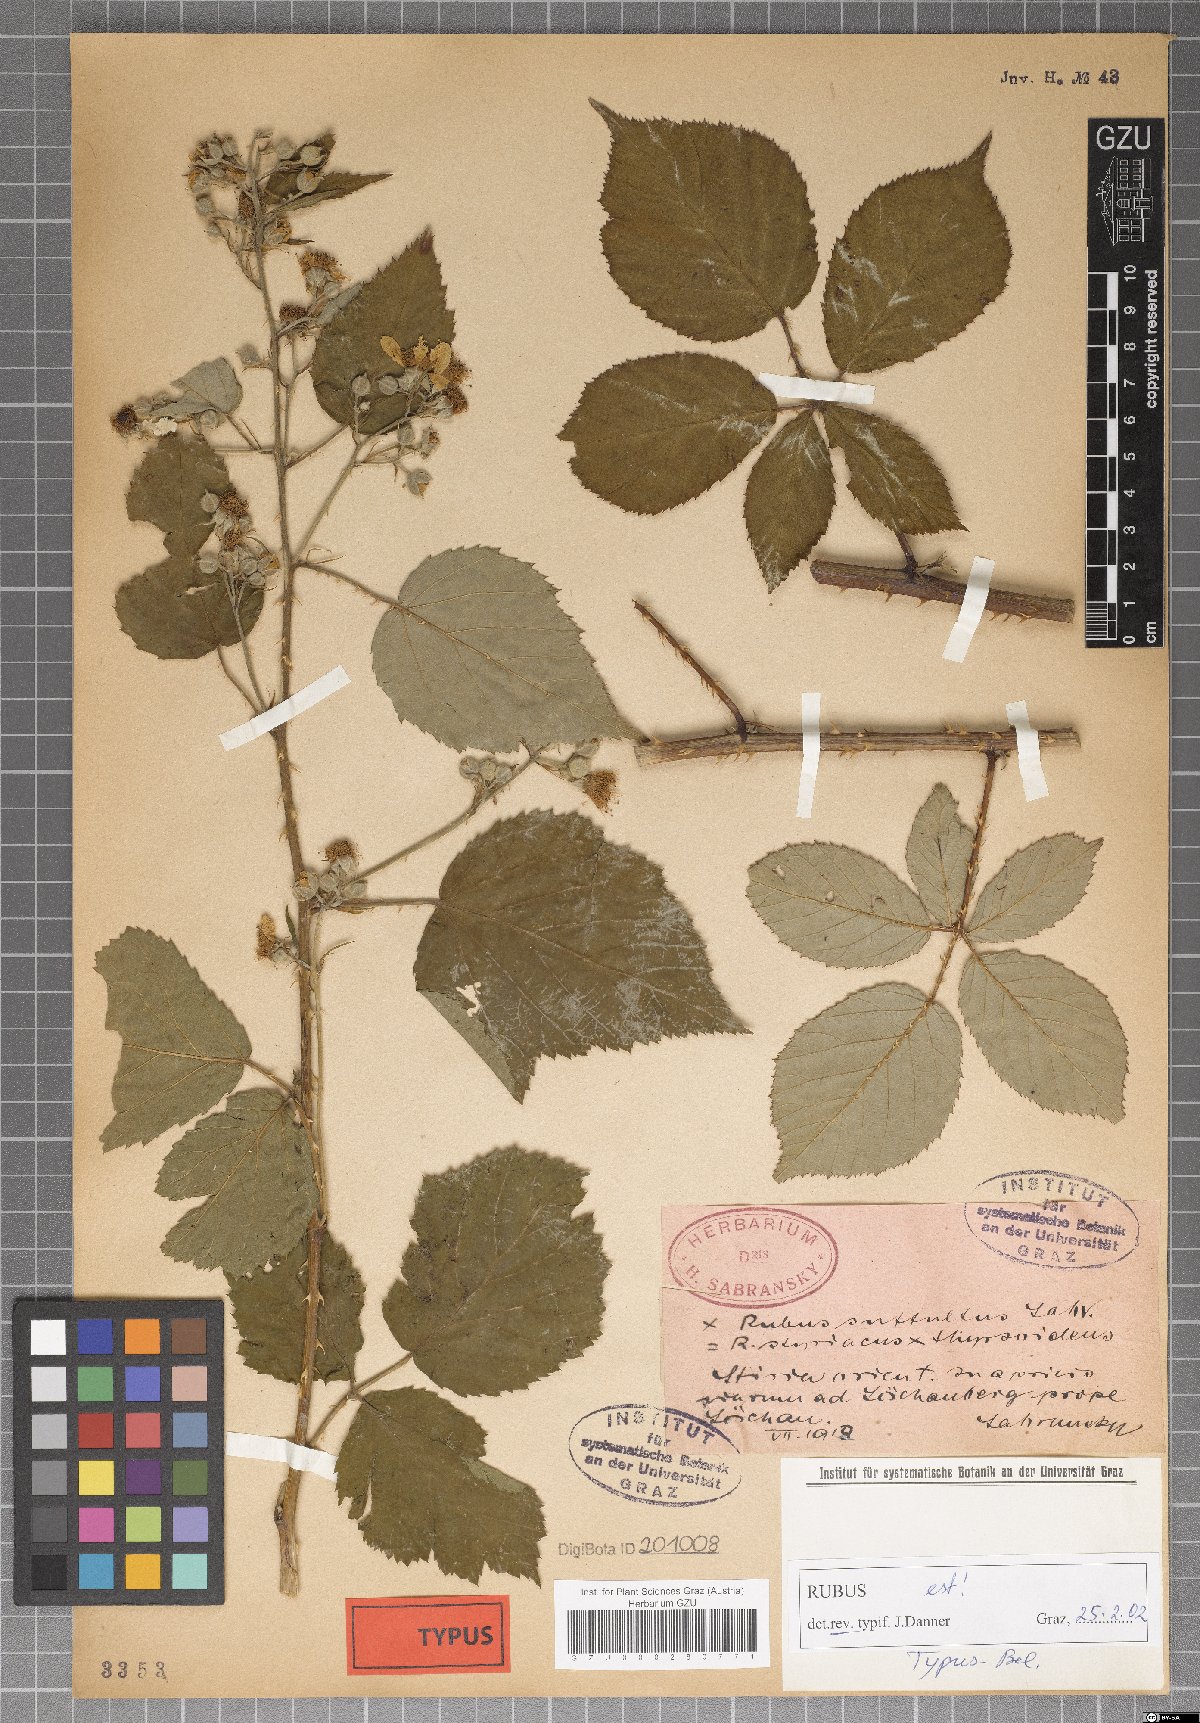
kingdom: Plantae
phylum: Tracheophyta
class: Magnoliopsida
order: Rosales
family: Rosaceae
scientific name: Rosaceae
